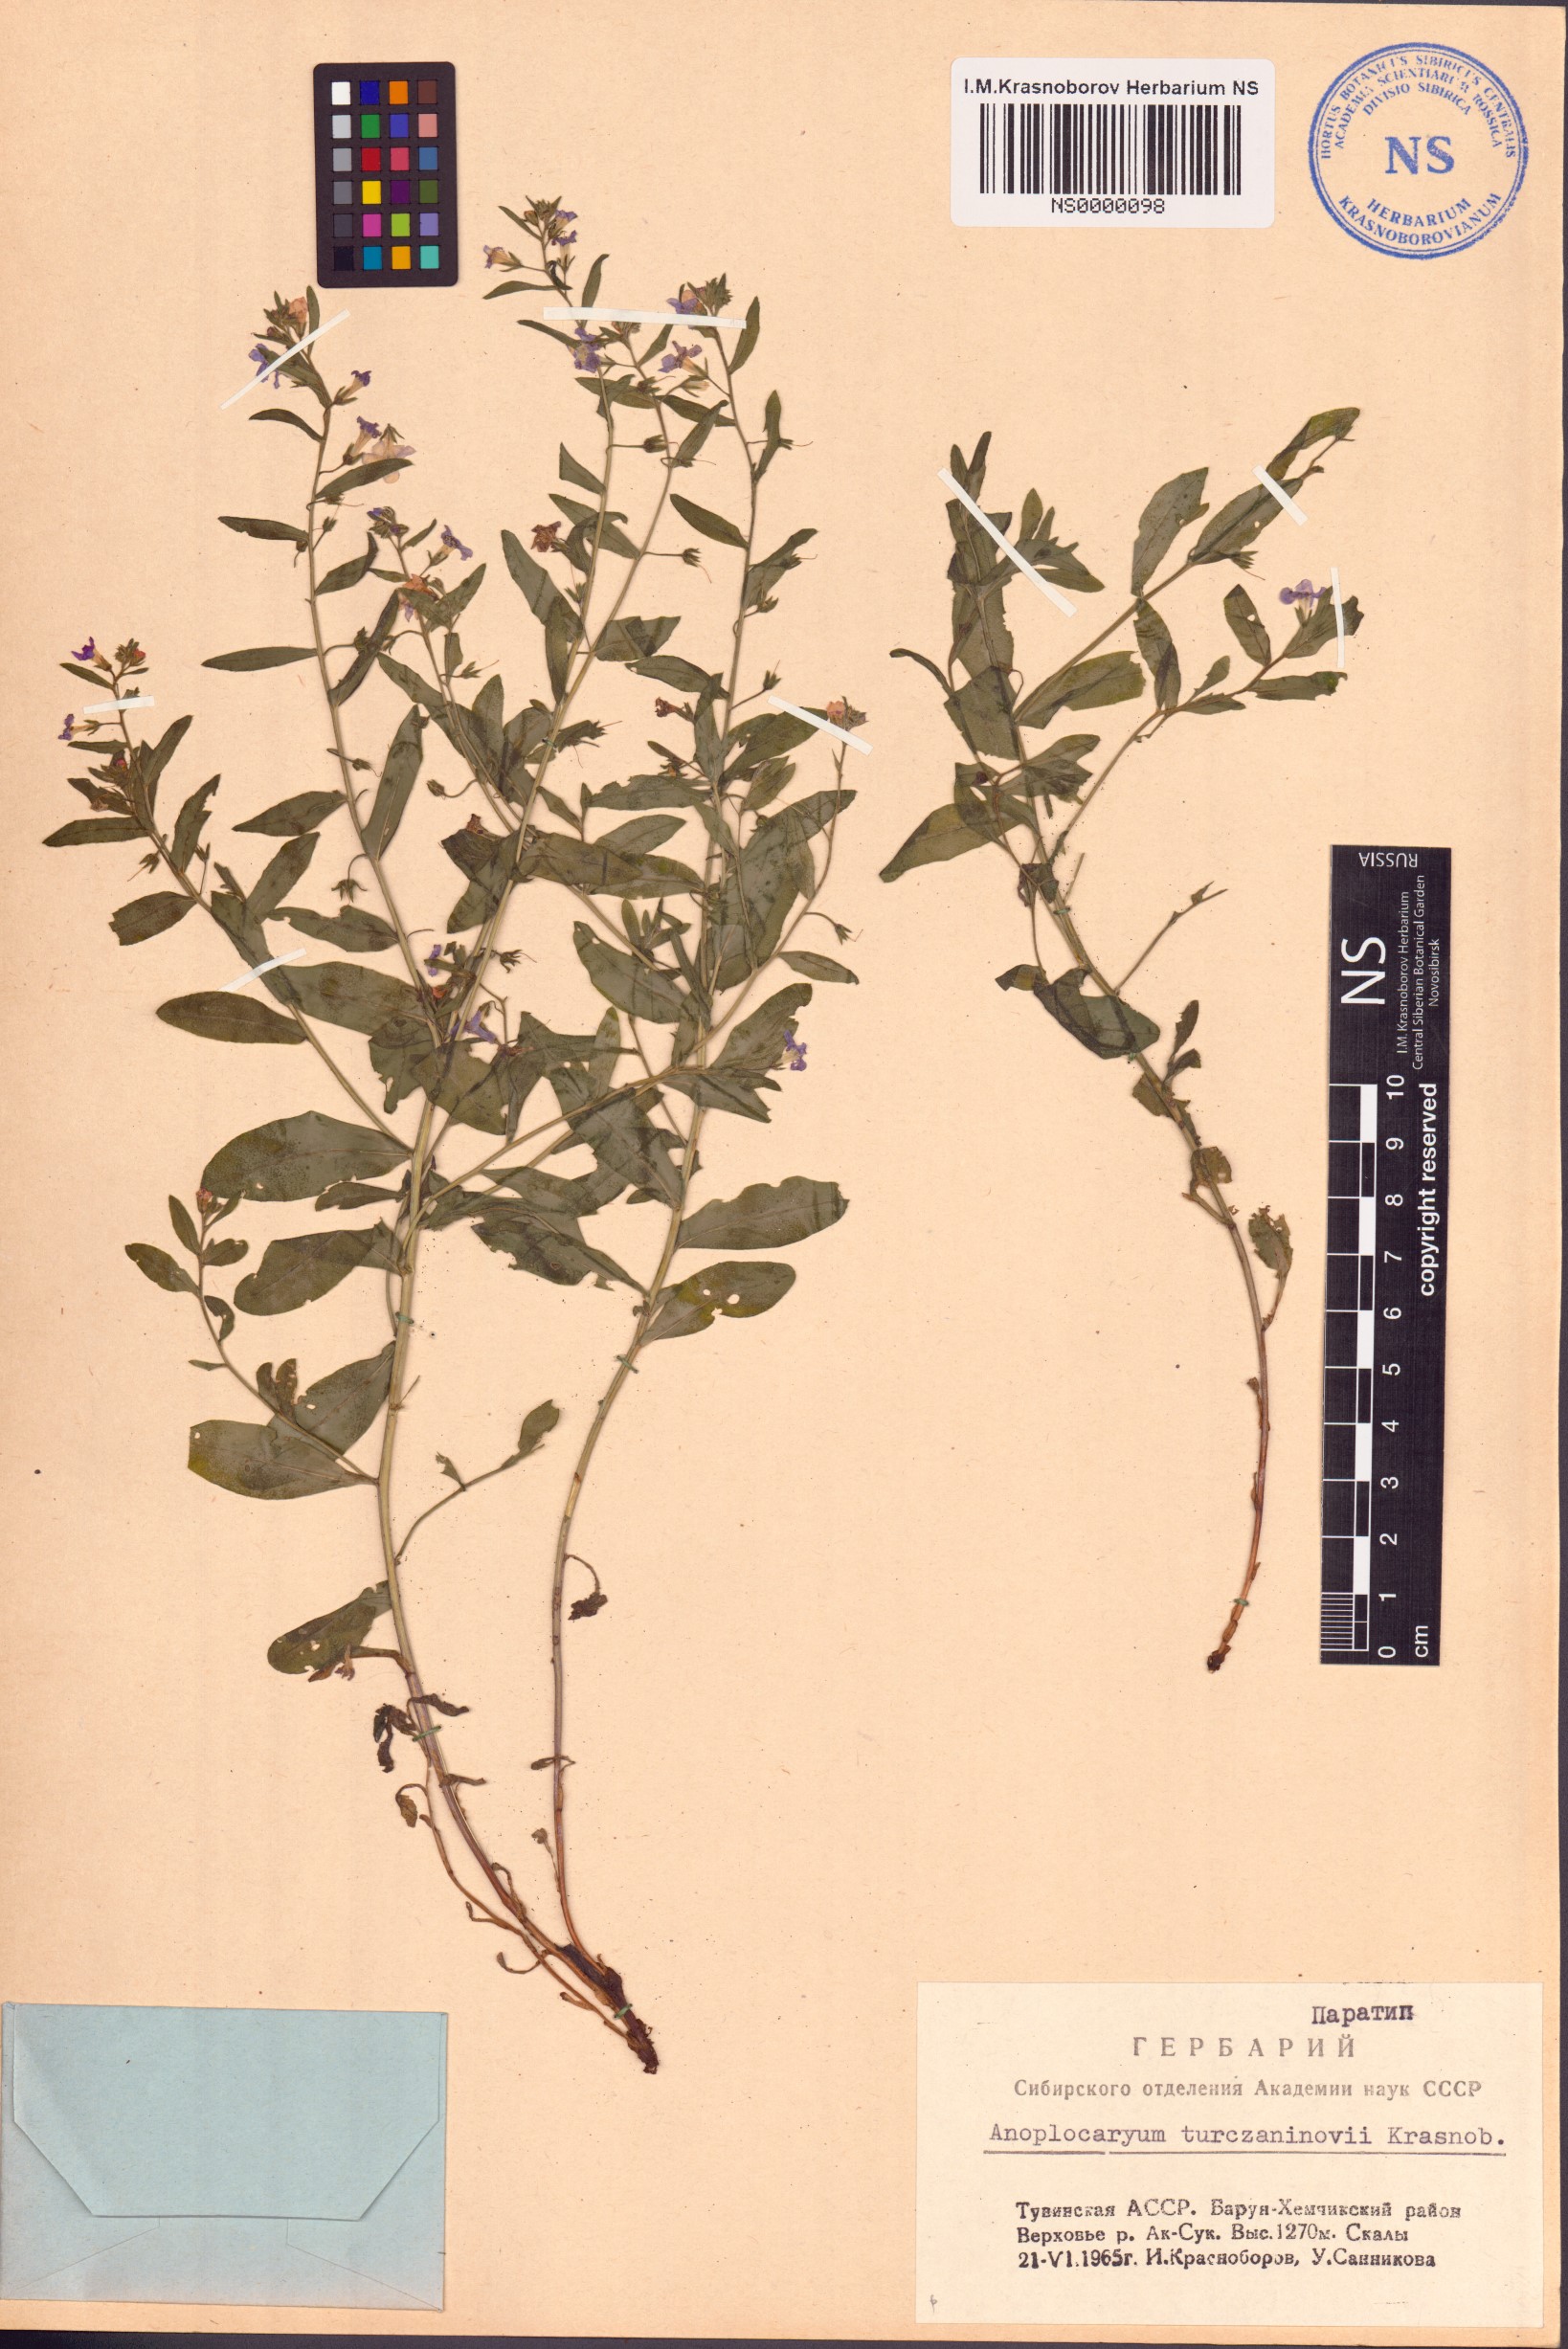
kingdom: Plantae
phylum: Tracheophyta
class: Magnoliopsida
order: Boraginales
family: Boraginaceae
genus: Anoplocaryum
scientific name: Anoplocaryum turczaninovii
